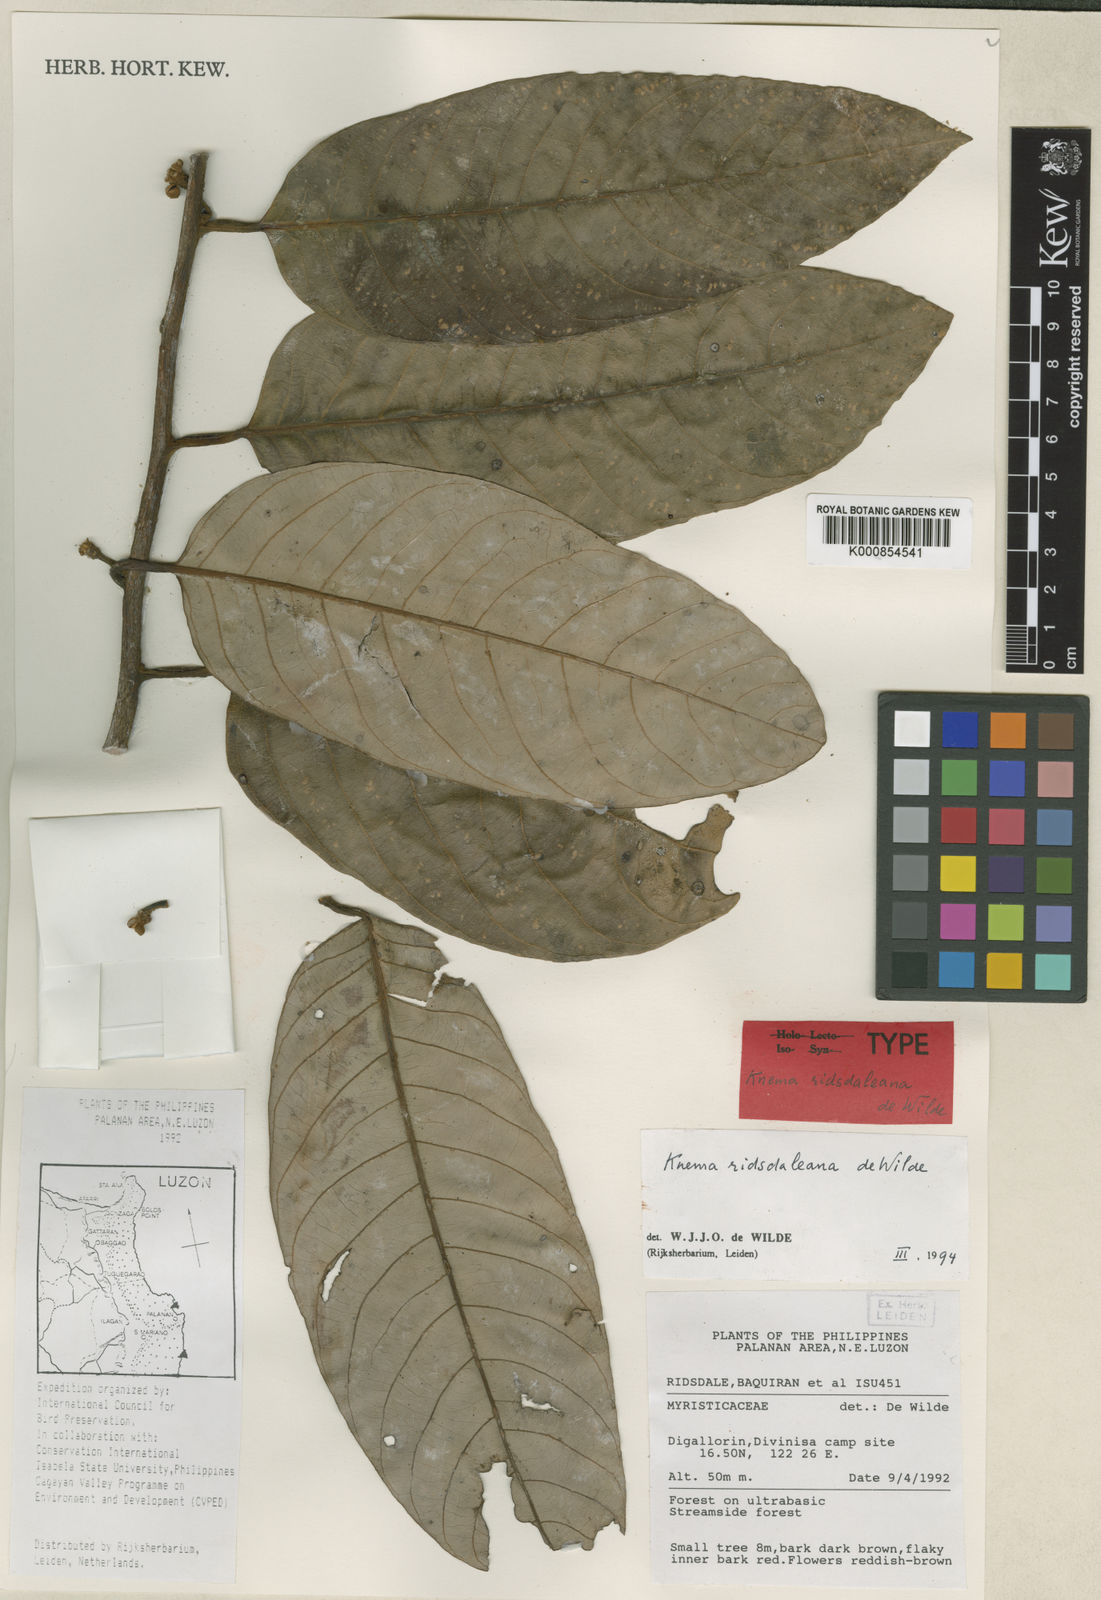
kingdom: Plantae
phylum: Tracheophyta
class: Magnoliopsida
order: Magnoliales
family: Myristicaceae
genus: Knema
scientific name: Knema ridsdaleana
